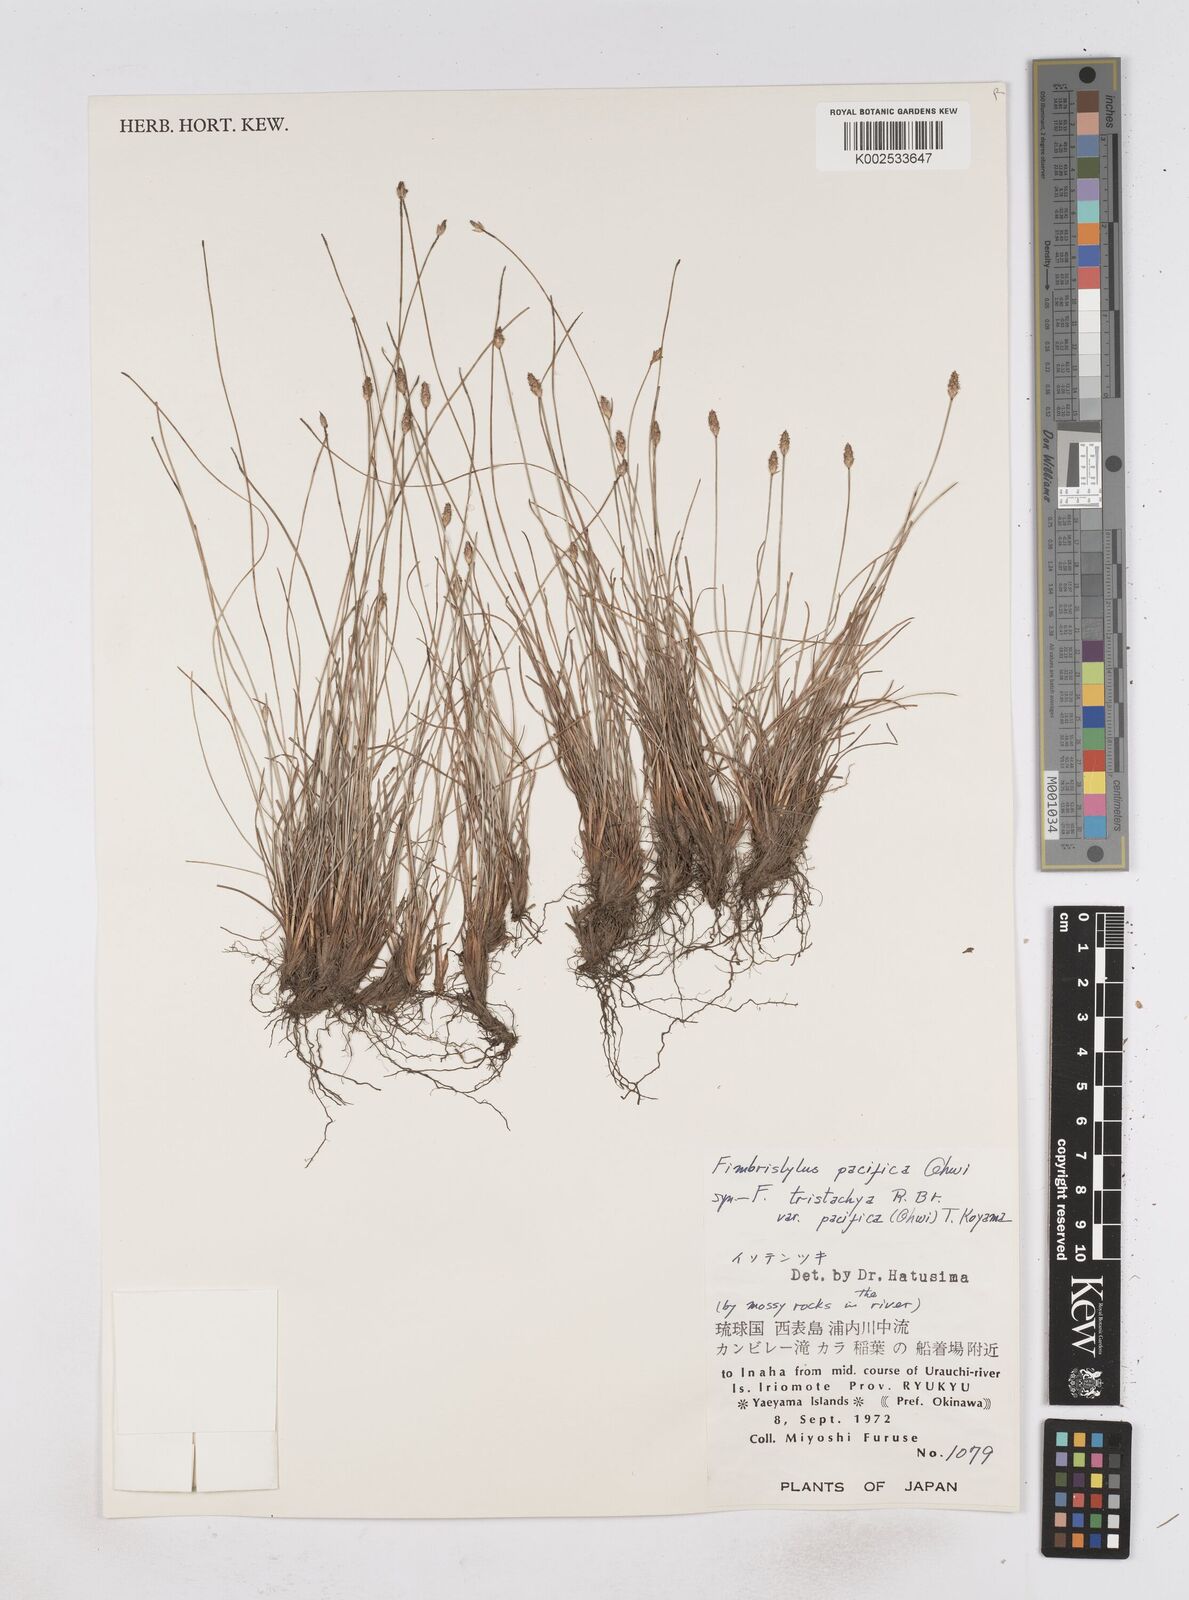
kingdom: Plantae
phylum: Tracheophyta
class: Liliopsida
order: Poales
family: Cyperaceae
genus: Fimbristylis
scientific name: Fimbristylis tristachya
